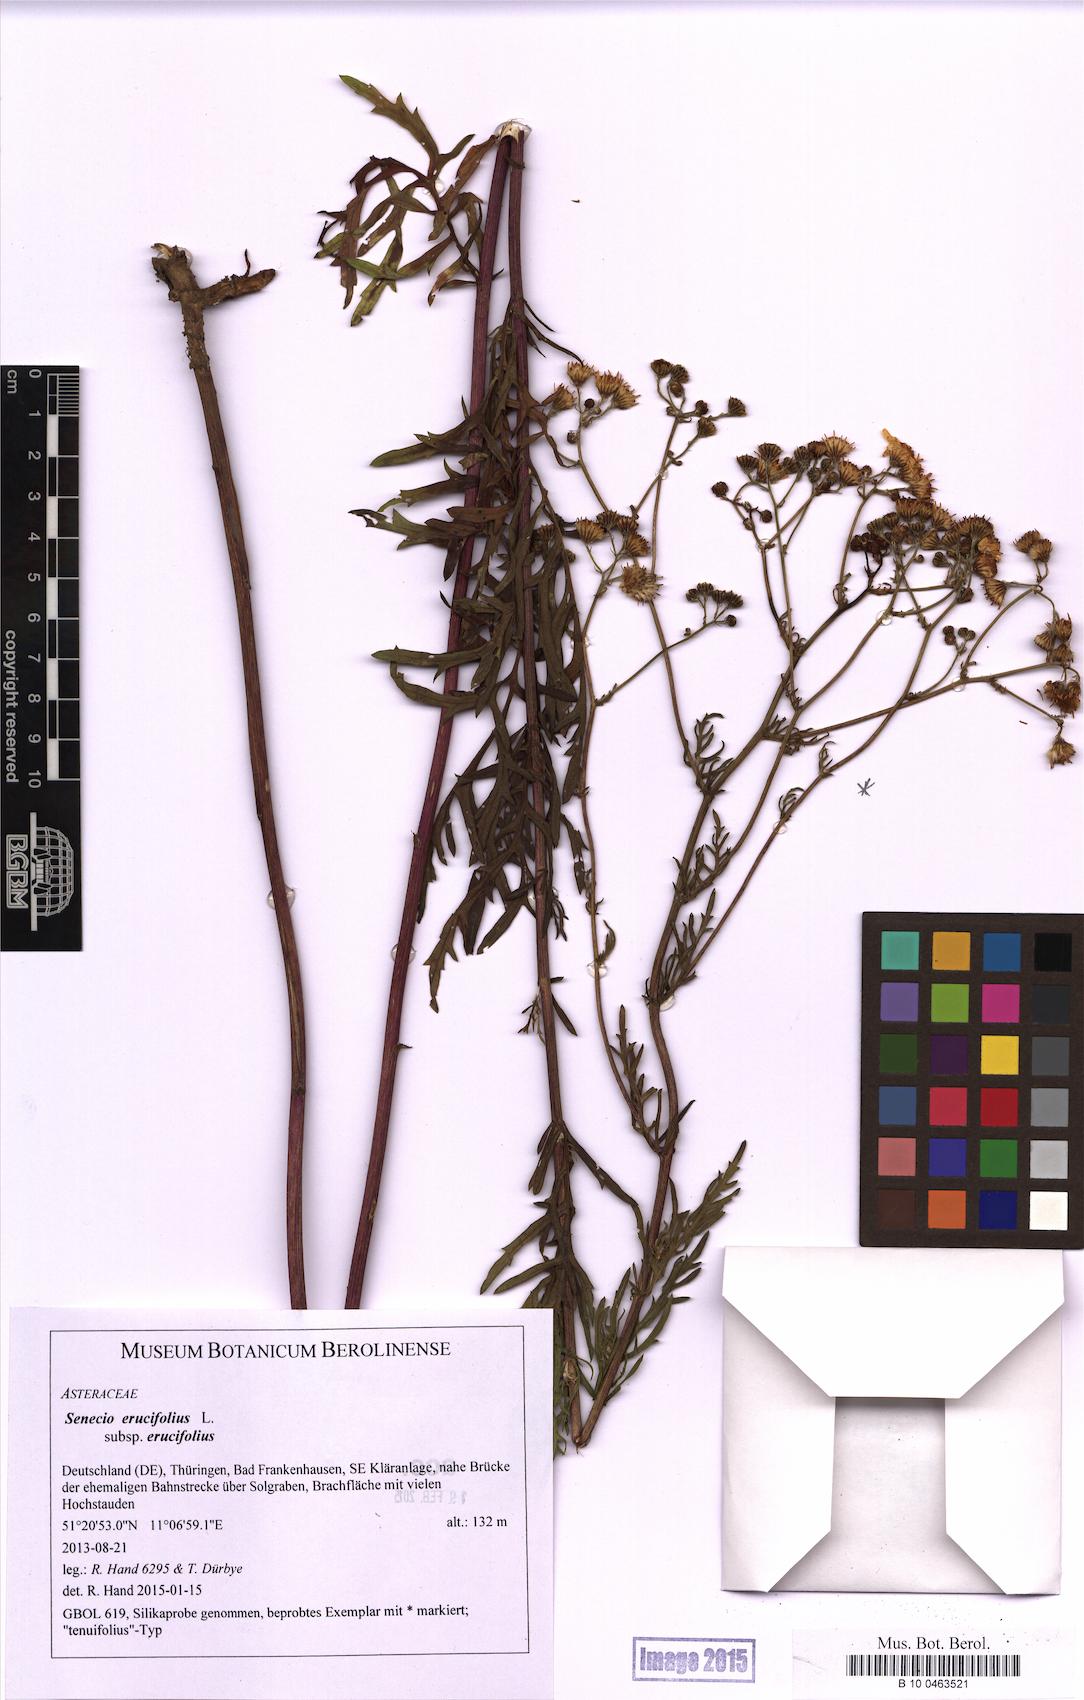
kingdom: Plantae
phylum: Tracheophyta
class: Magnoliopsida
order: Asterales
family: Asteraceae
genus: Jacobaea
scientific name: Jacobaea erucifolia
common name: Hoary ragwort
